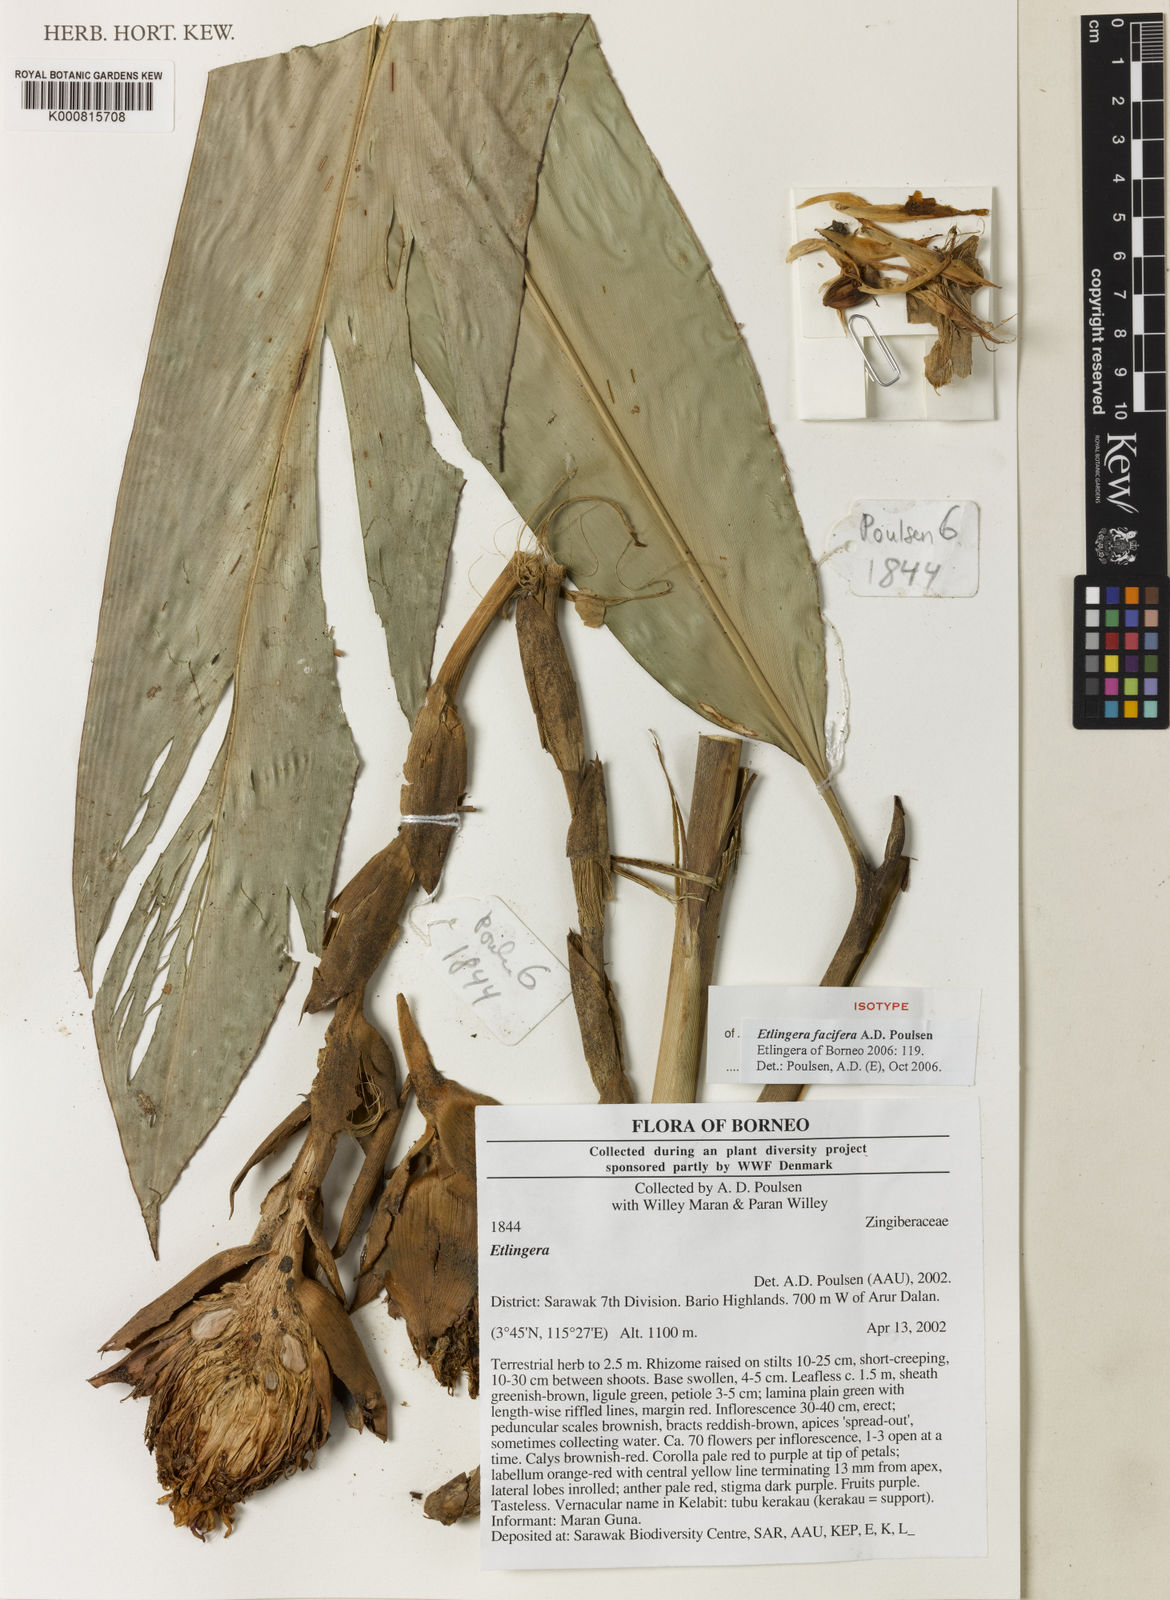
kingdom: Plantae
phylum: Tracheophyta
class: Liliopsida
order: Zingiberales
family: Zingiberaceae
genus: Etlingera
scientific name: Etlingera facifera
